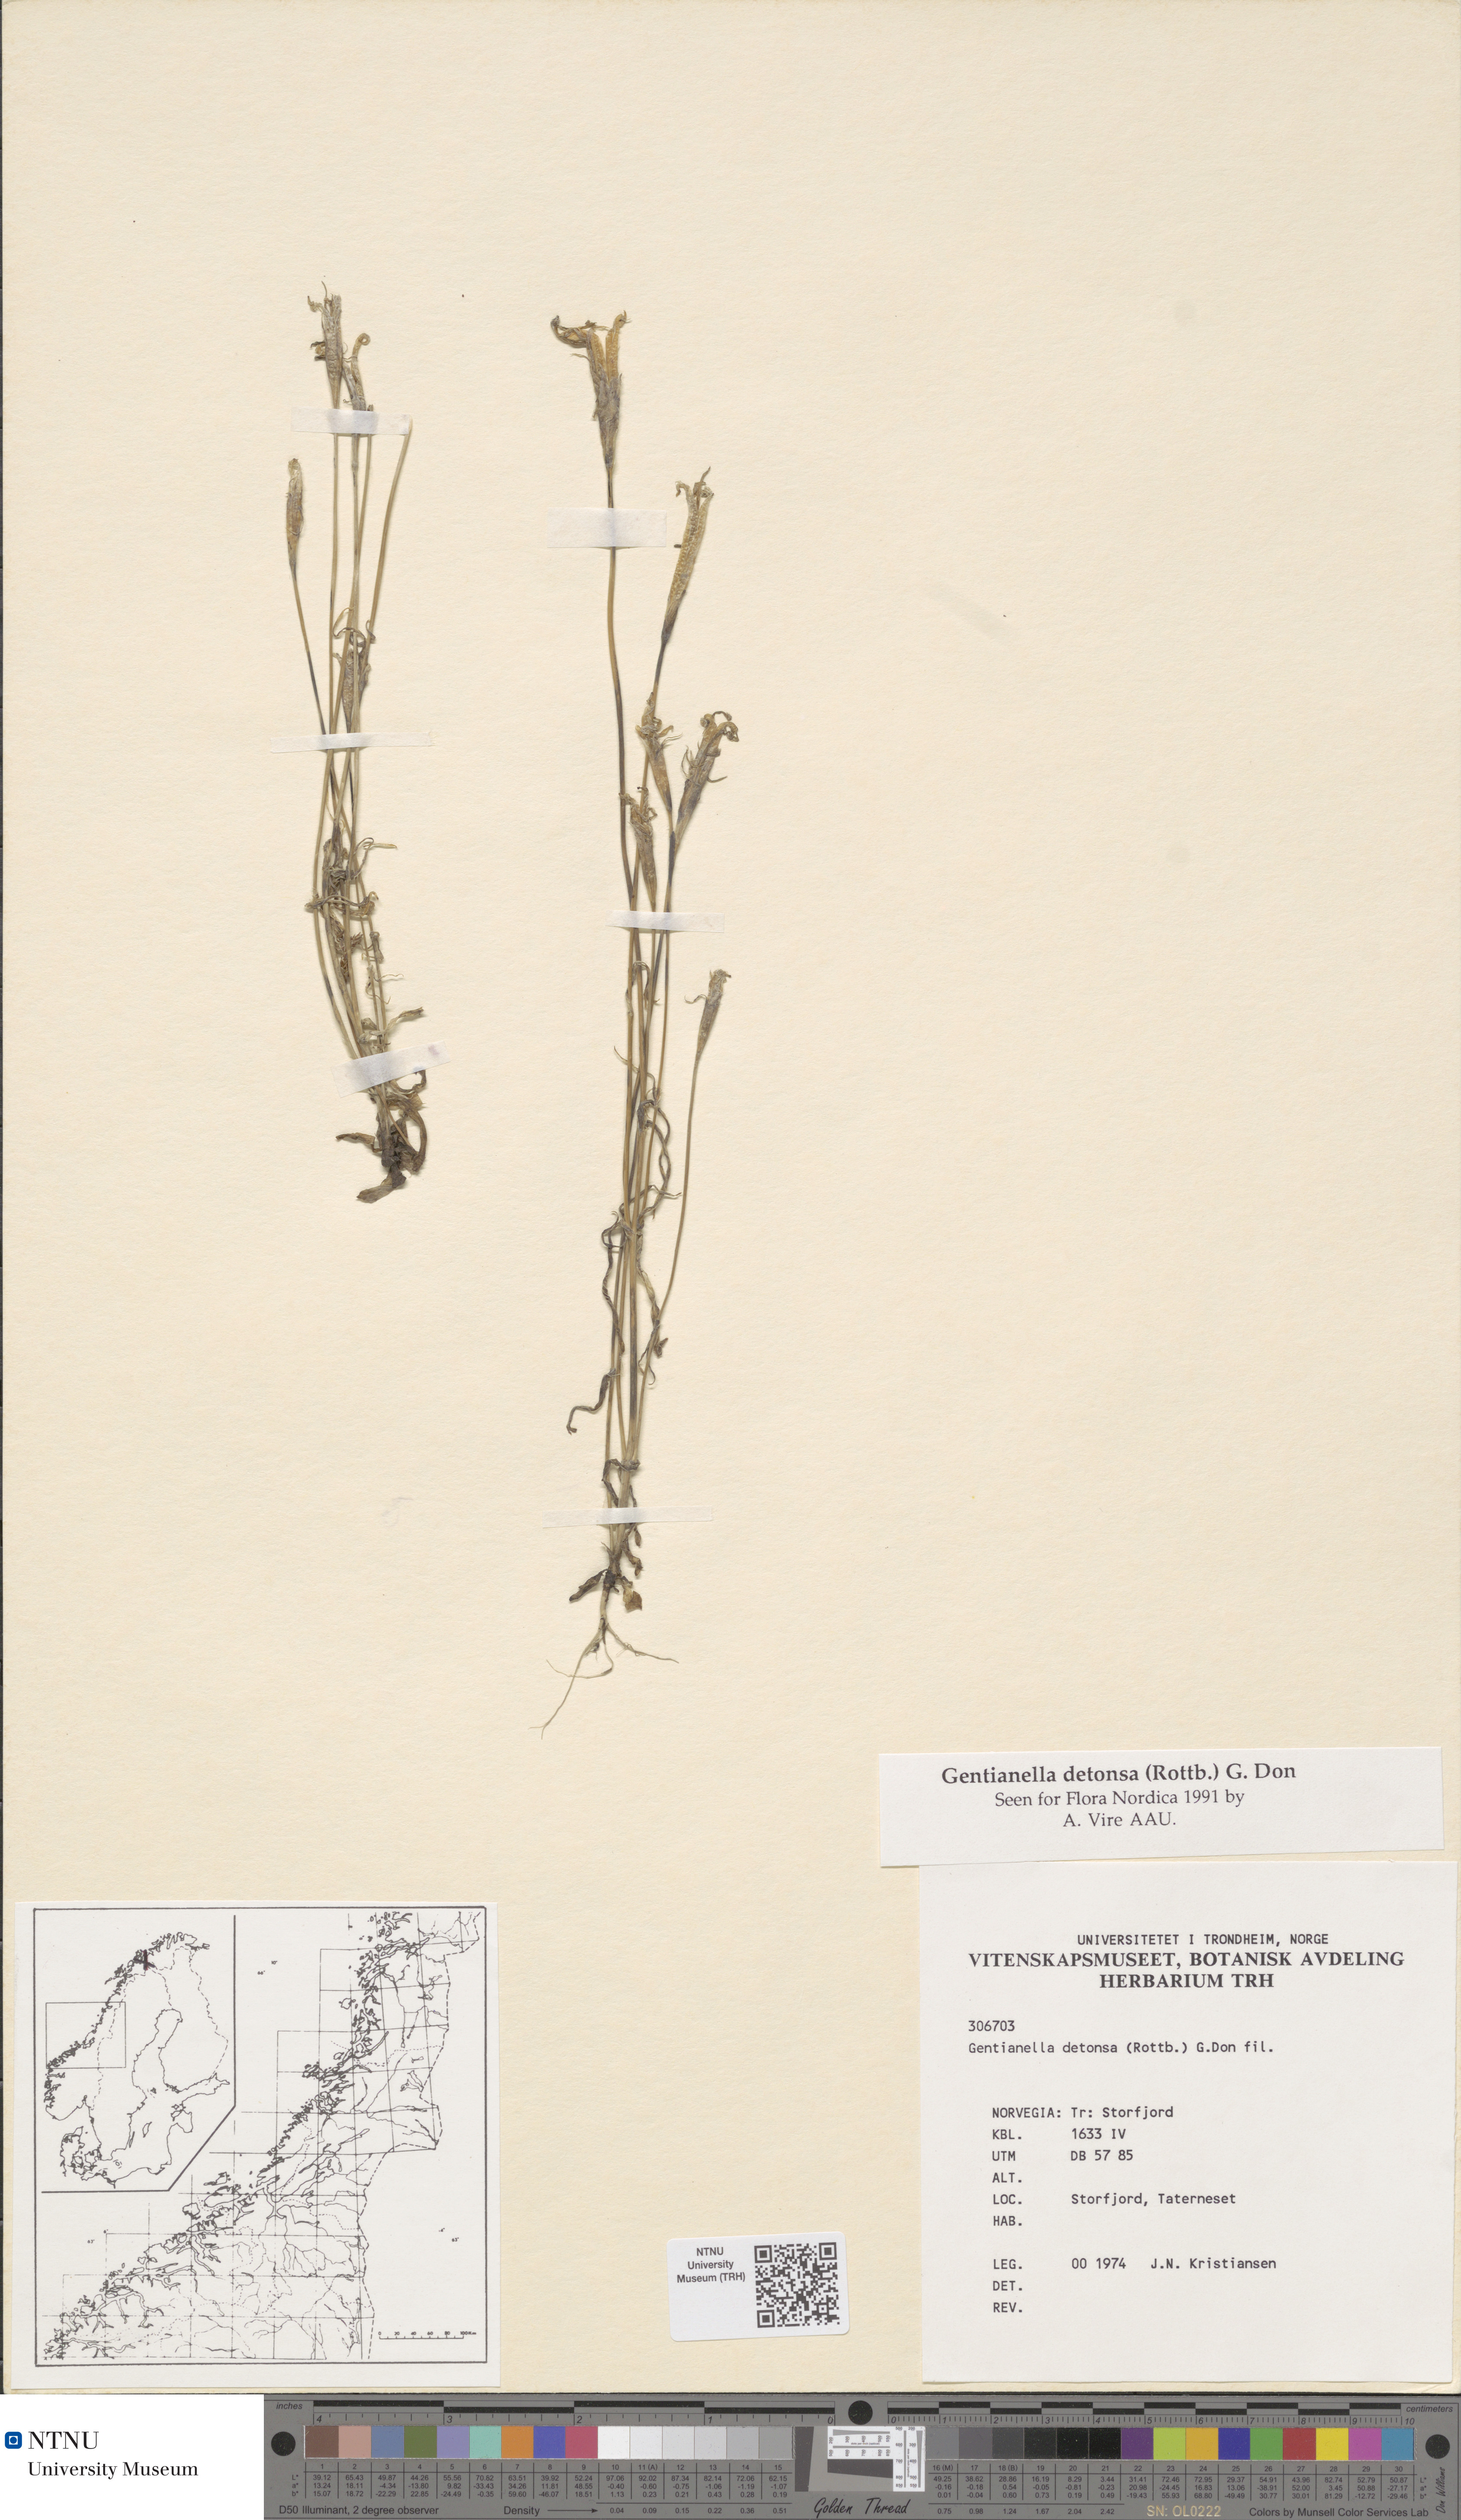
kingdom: Plantae
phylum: Tracheophyta
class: Magnoliopsida
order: Gentianales
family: Gentianaceae
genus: Gentianopsis
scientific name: Gentianopsis detonsa
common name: Fringed-gentian
